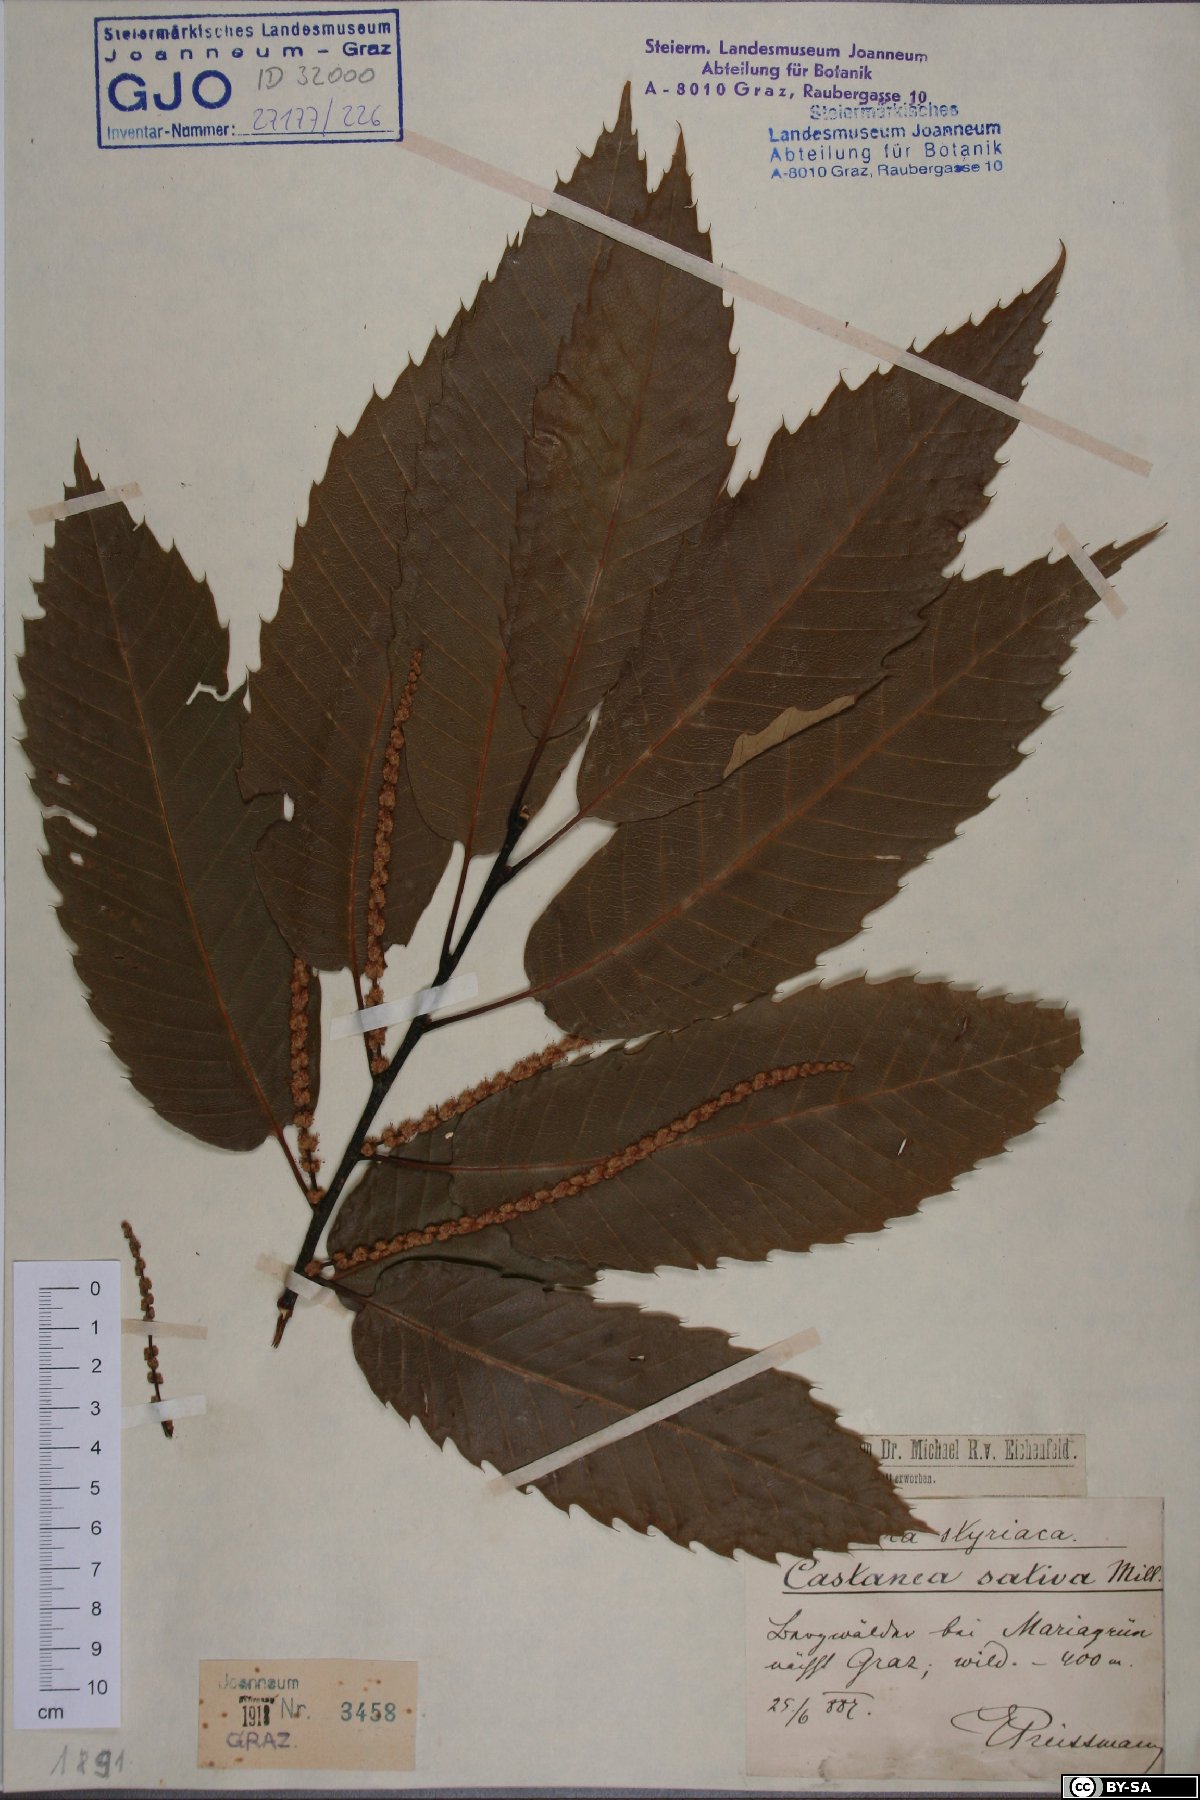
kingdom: Plantae
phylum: Tracheophyta
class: Magnoliopsida
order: Fagales
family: Fagaceae
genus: Castanea
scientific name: Castanea sativa
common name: Sweet chestnut
